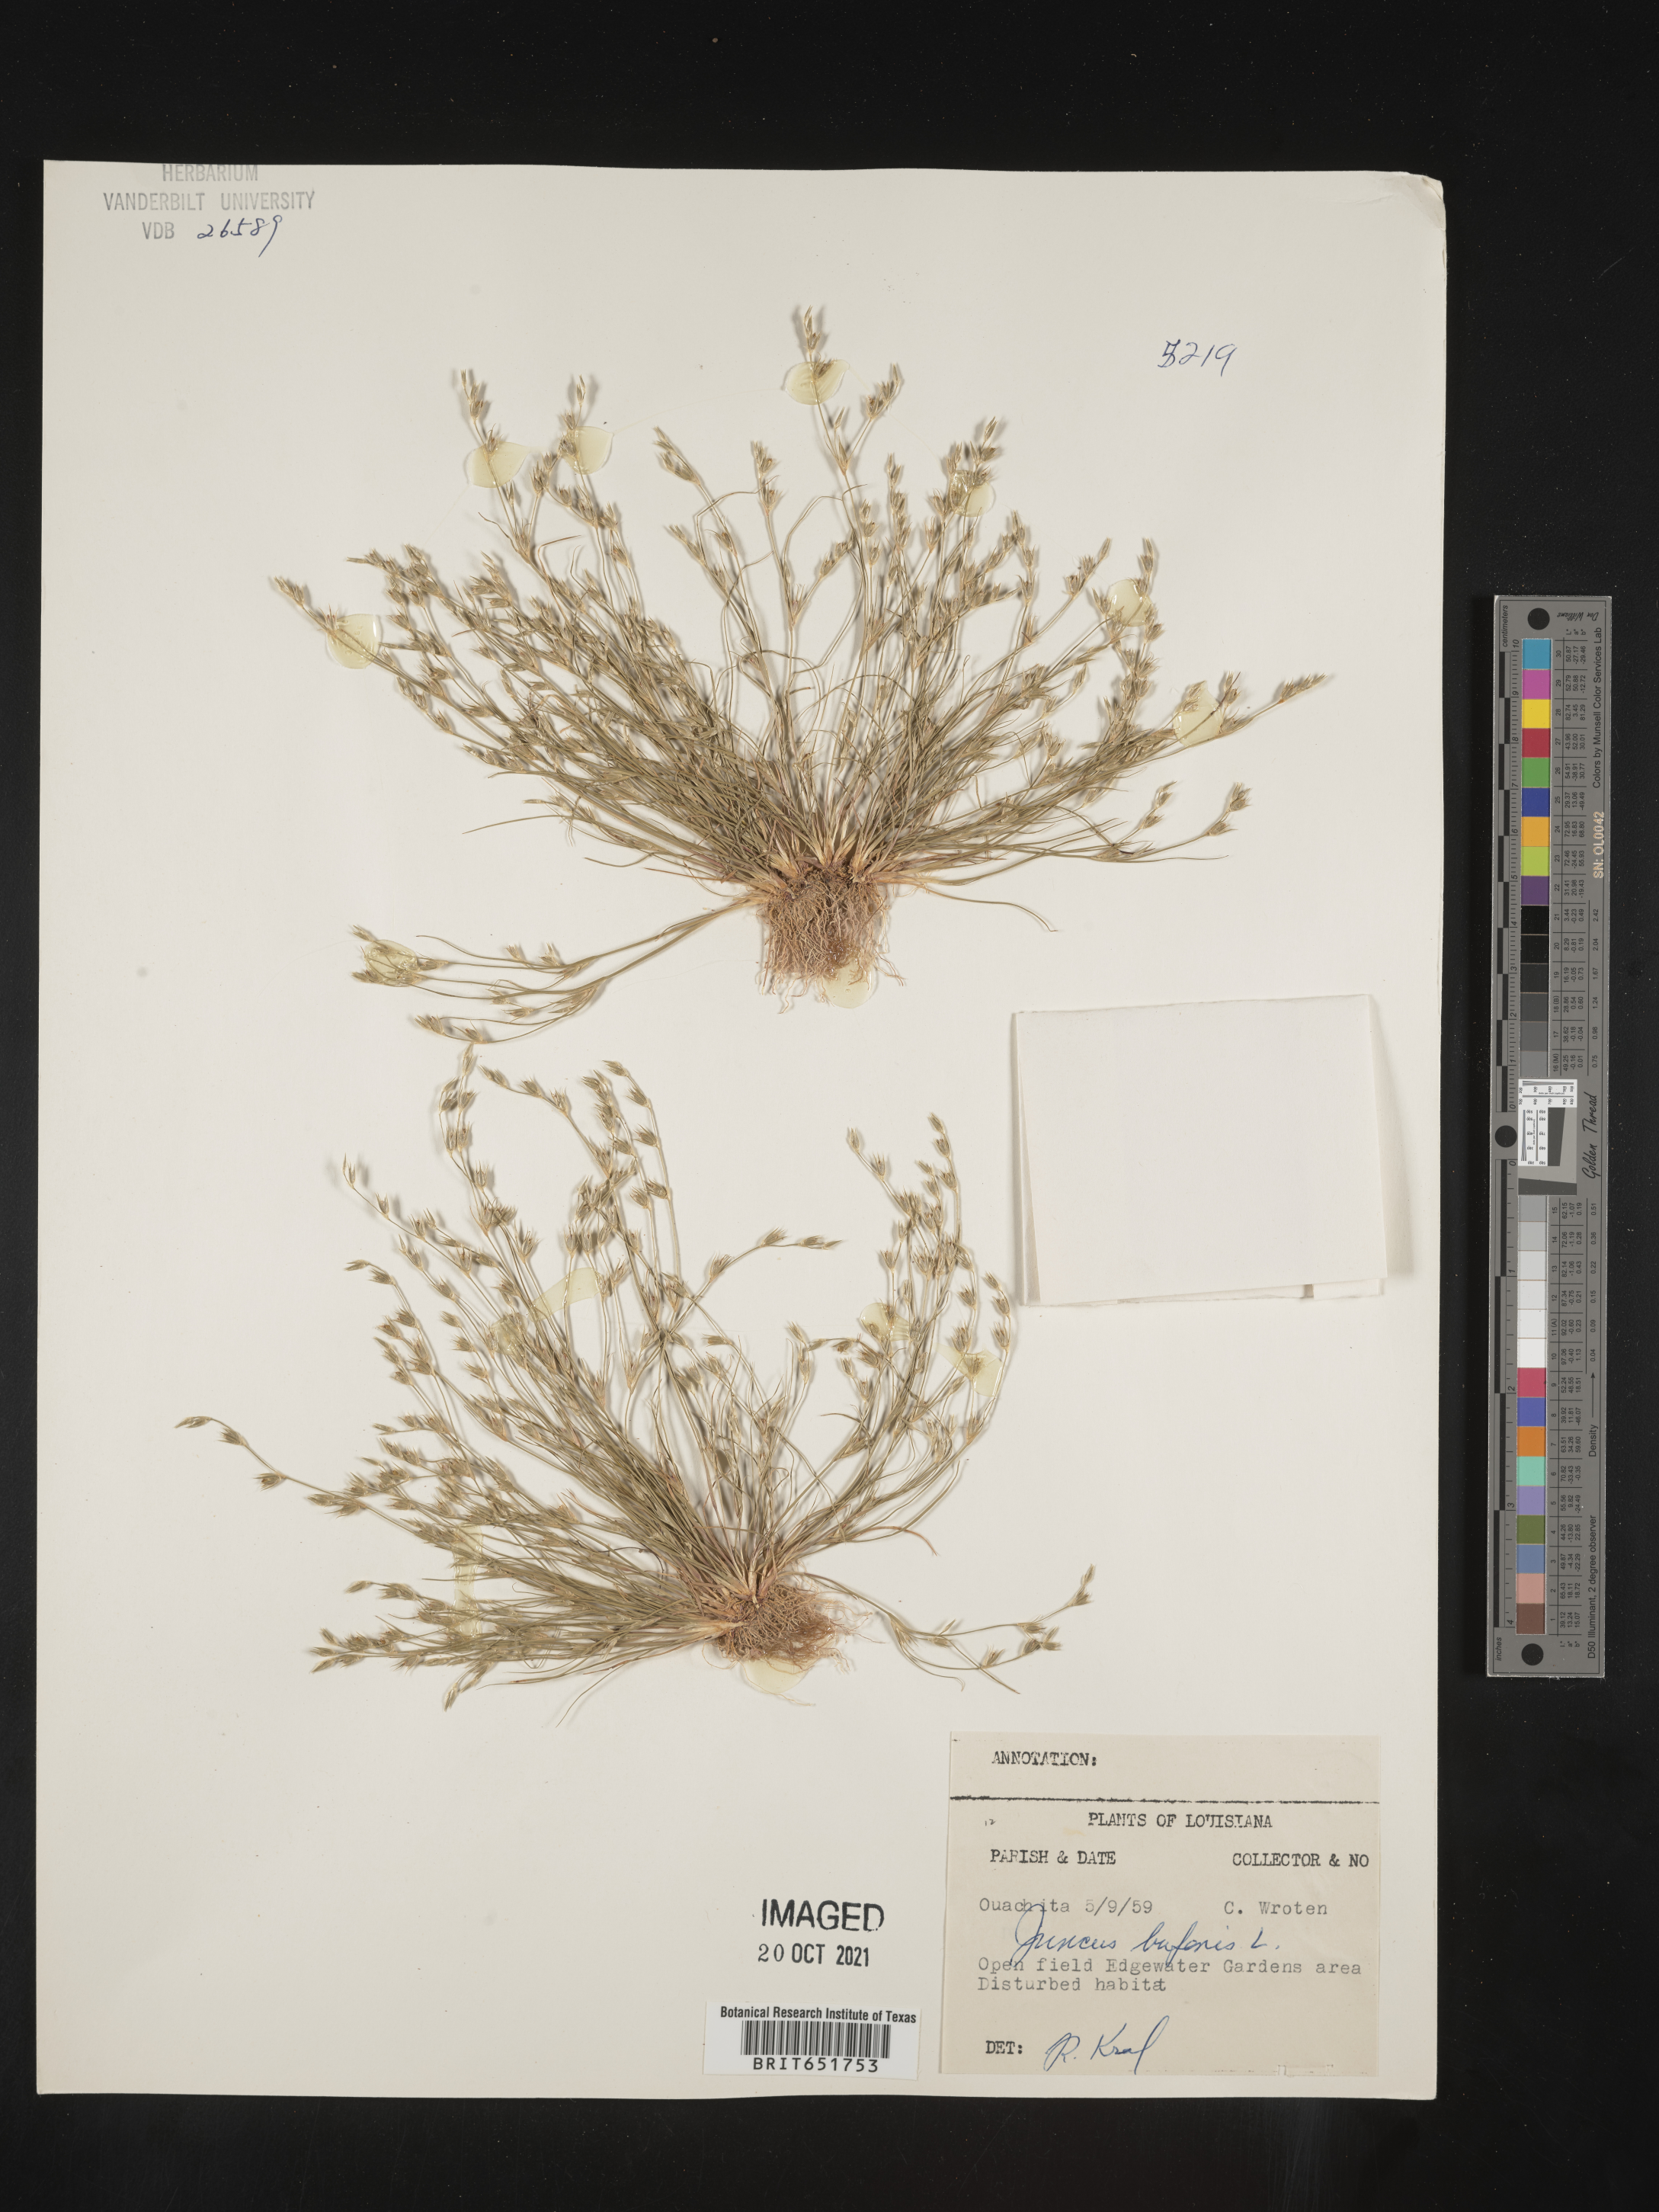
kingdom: Plantae
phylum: Tracheophyta
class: Liliopsida
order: Poales
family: Juncaceae
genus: Juncus
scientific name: Juncus bufonius
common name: Toad rush
